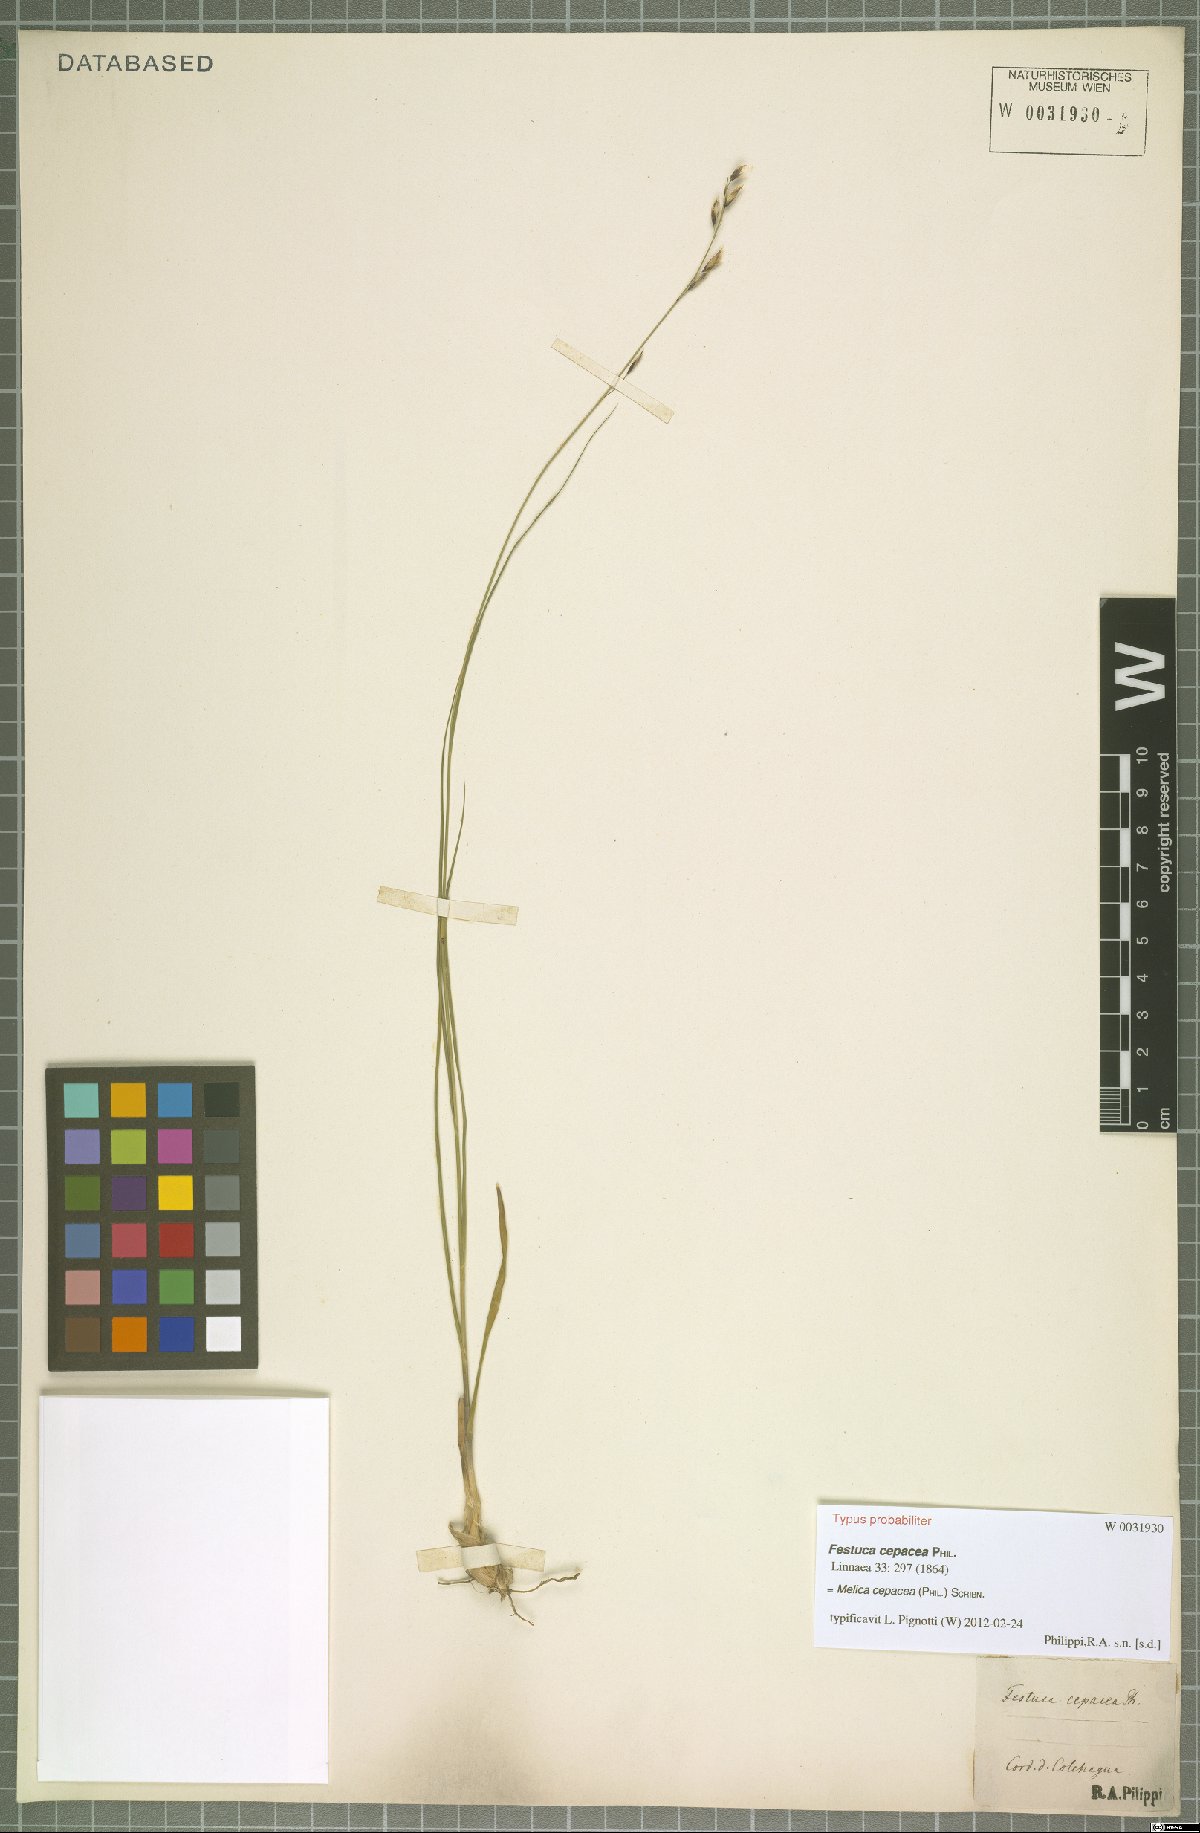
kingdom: Plantae
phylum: Tracheophyta
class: Liliopsida
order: Poales
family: Poaceae
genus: Melica
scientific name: Melica cepacea
